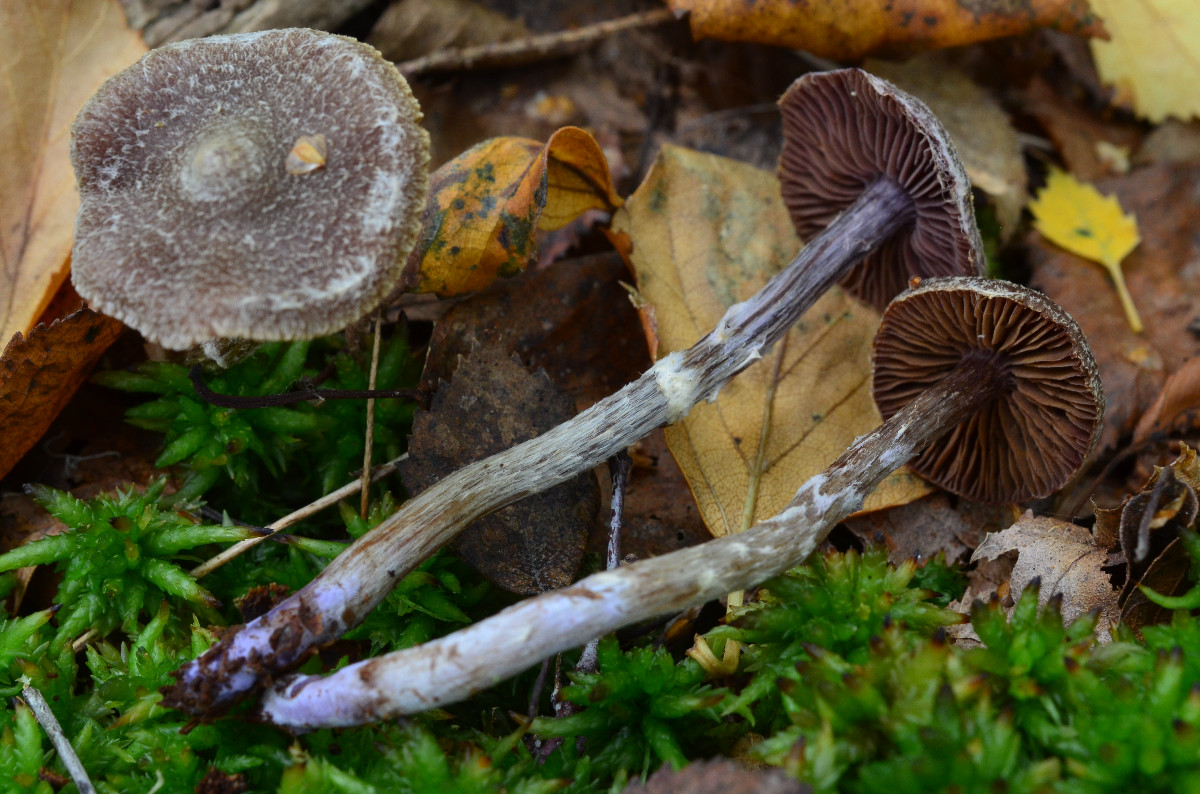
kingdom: Fungi
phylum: Basidiomycota
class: Agaricomycetes
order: Agaricales
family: Cortinariaceae
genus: Cortinarius
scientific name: Cortinarius flexipes
